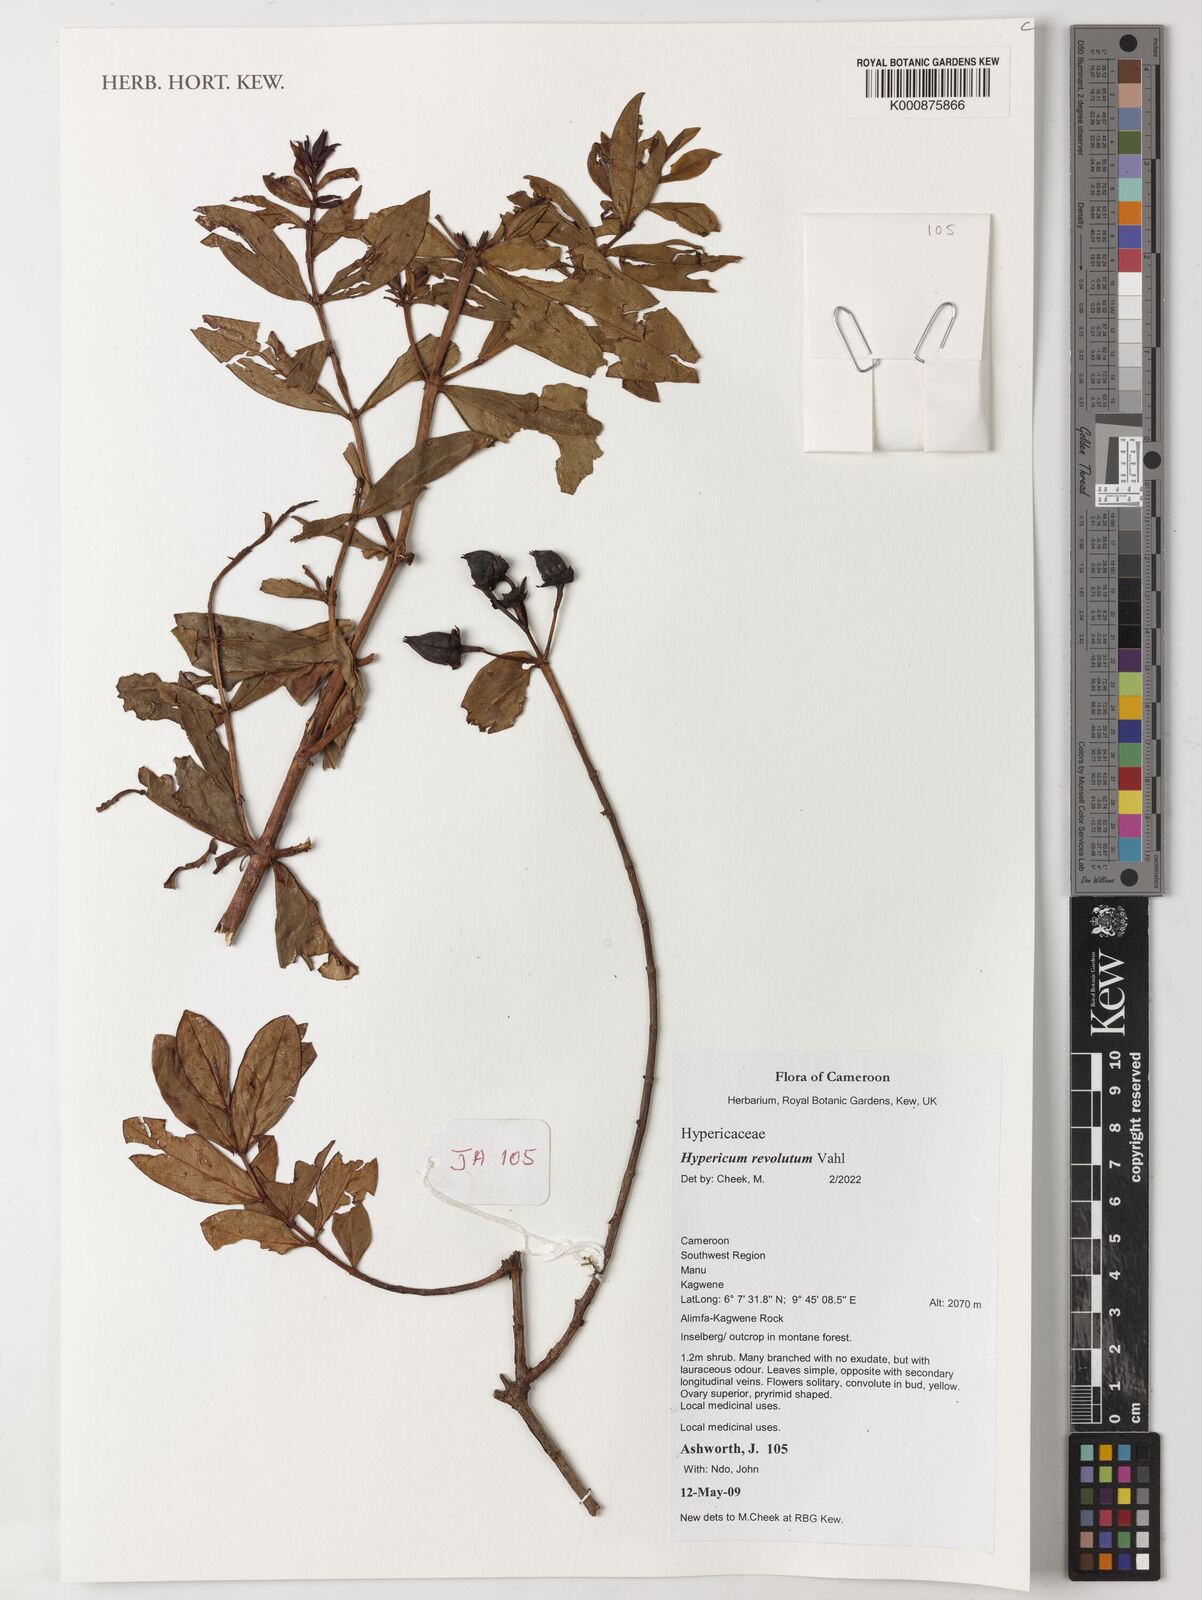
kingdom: Plantae
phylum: Tracheophyta
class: Magnoliopsida
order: Malpighiales
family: Hypericaceae
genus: Hypericum
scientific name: Hypericum revolutum
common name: Curry bush
